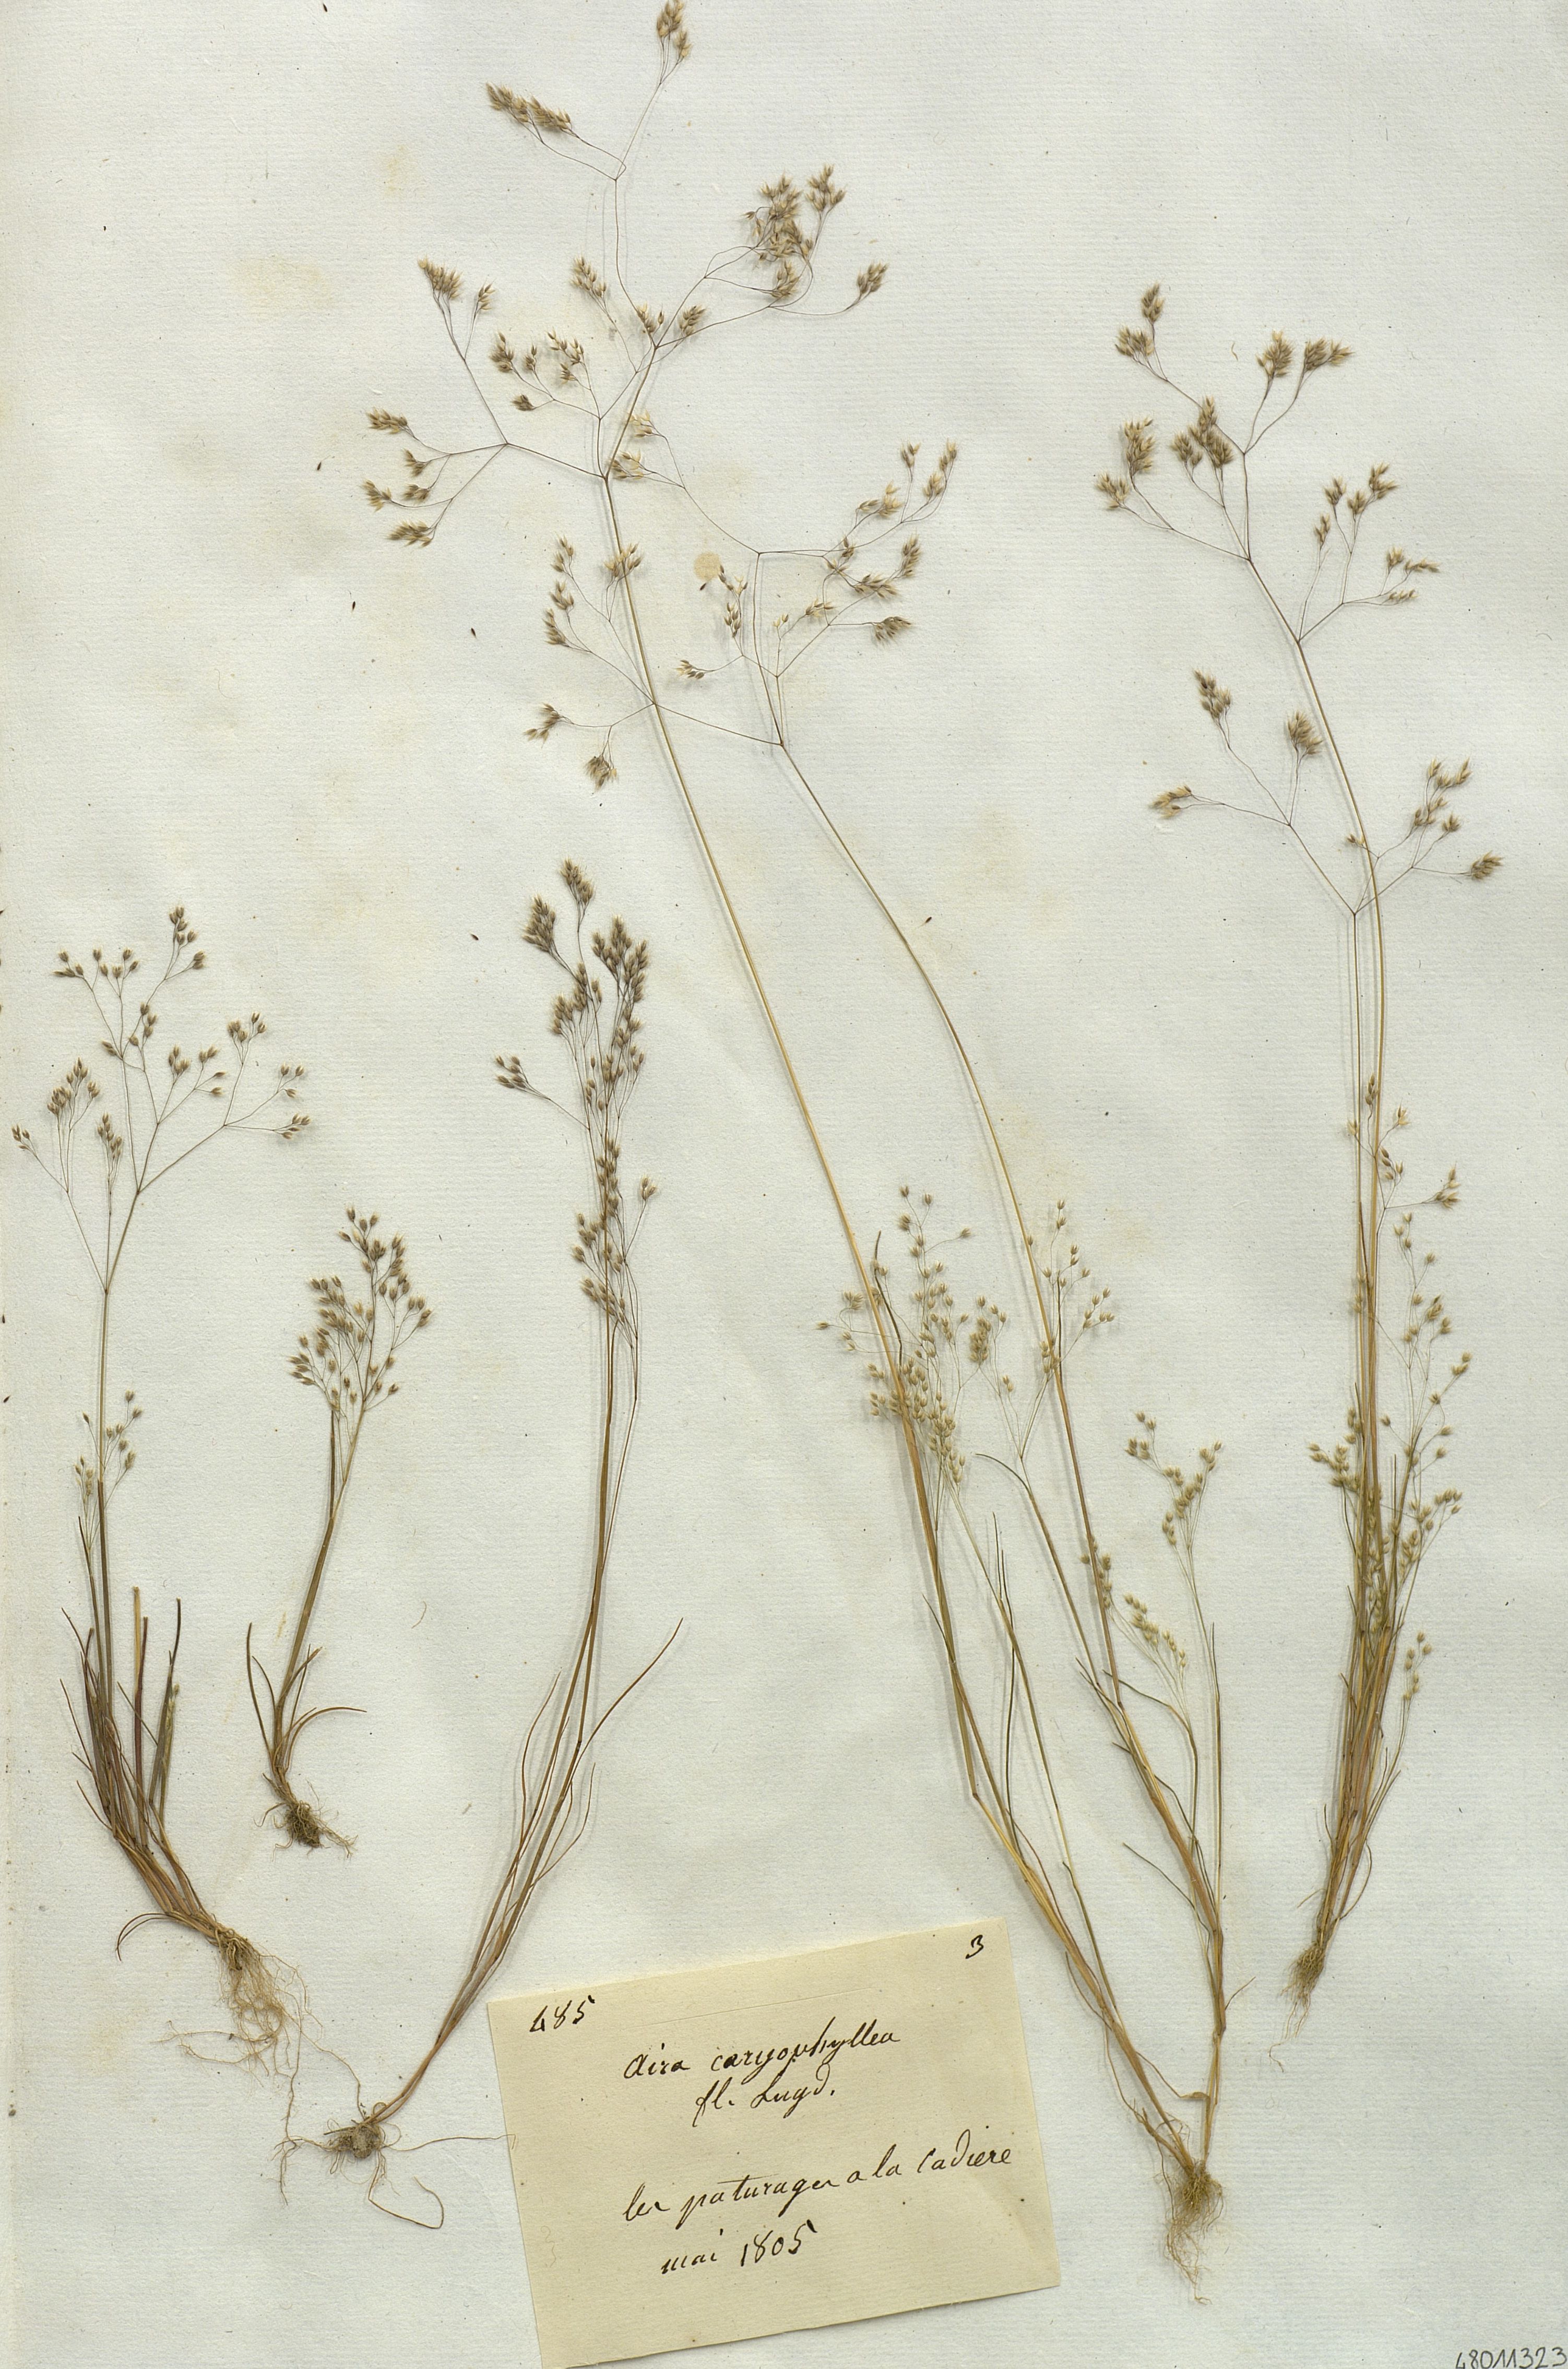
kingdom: Plantae
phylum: Tracheophyta
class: Liliopsida
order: Poales
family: Poaceae
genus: Aira
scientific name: Aira caryophyllea
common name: Silver hairgrass
